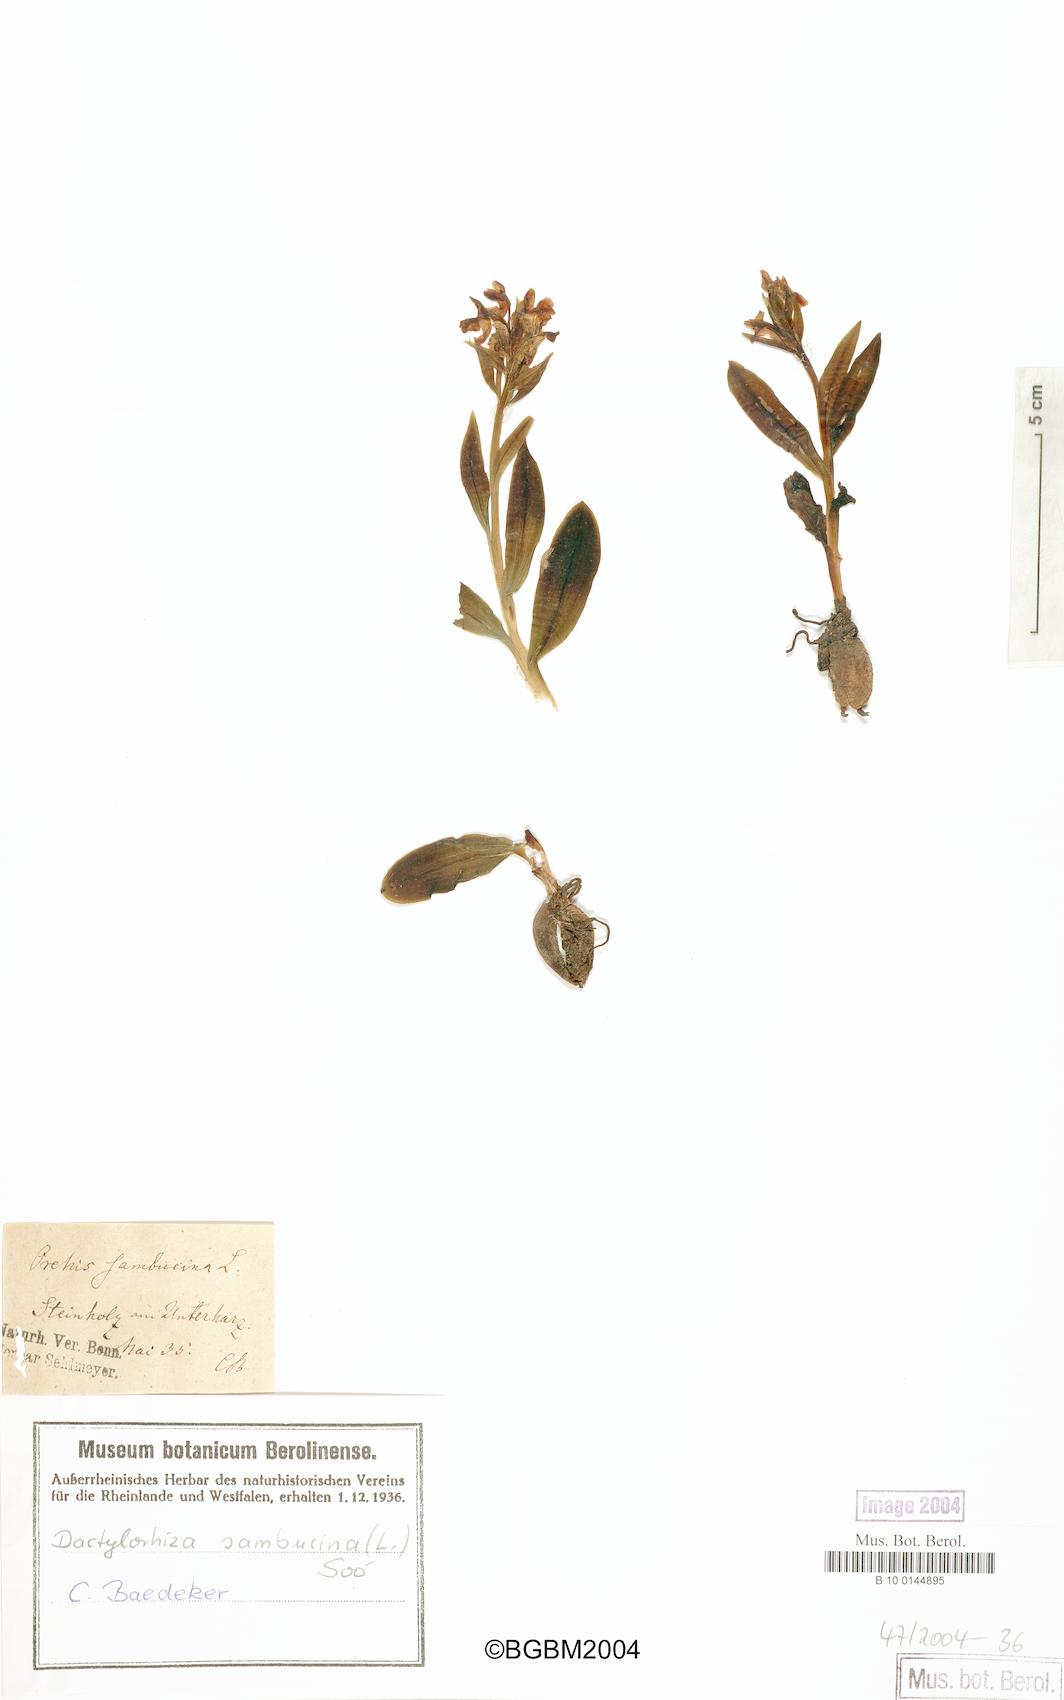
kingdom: Plantae
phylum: Tracheophyta
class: Liliopsida
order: Asparagales
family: Orchidaceae
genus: Dactylorhiza
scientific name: Dactylorhiza sambucina
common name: Elder-flowered orchid
